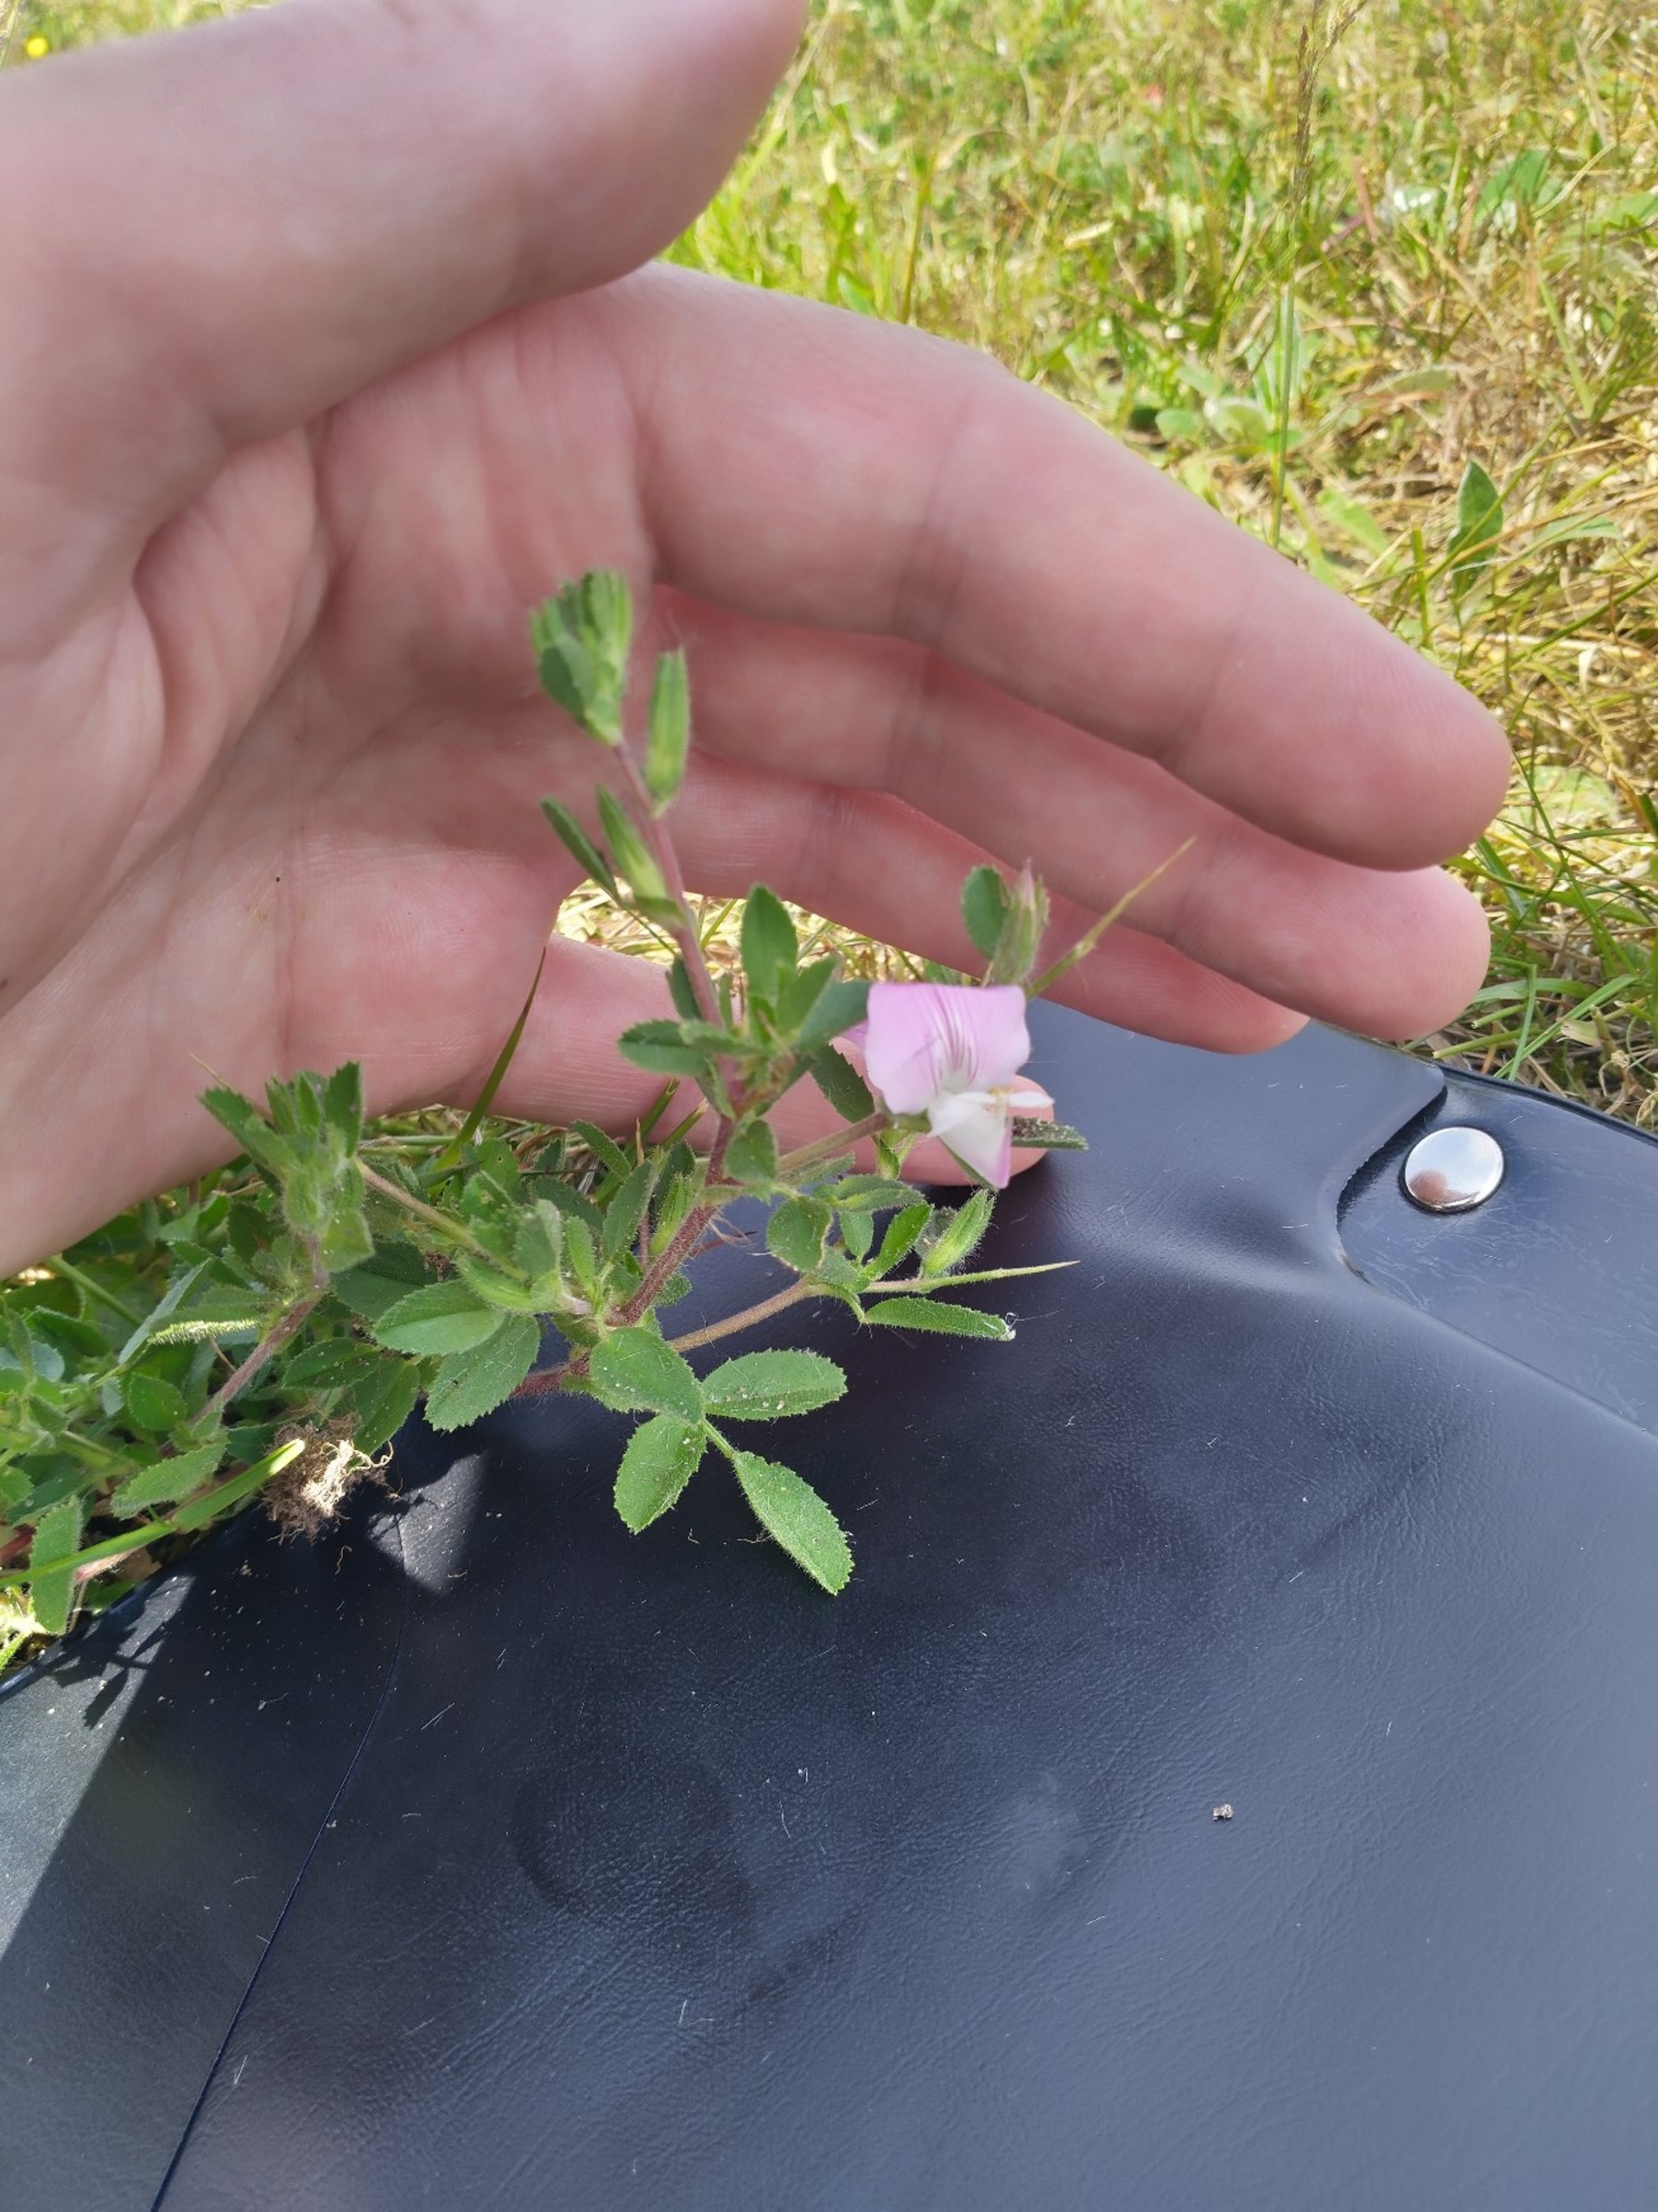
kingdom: Plantae
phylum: Tracheophyta
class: Magnoliopsida
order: Fabales
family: Fabaceae
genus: Ononis
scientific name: Ononis spinosa
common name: Krageklo
